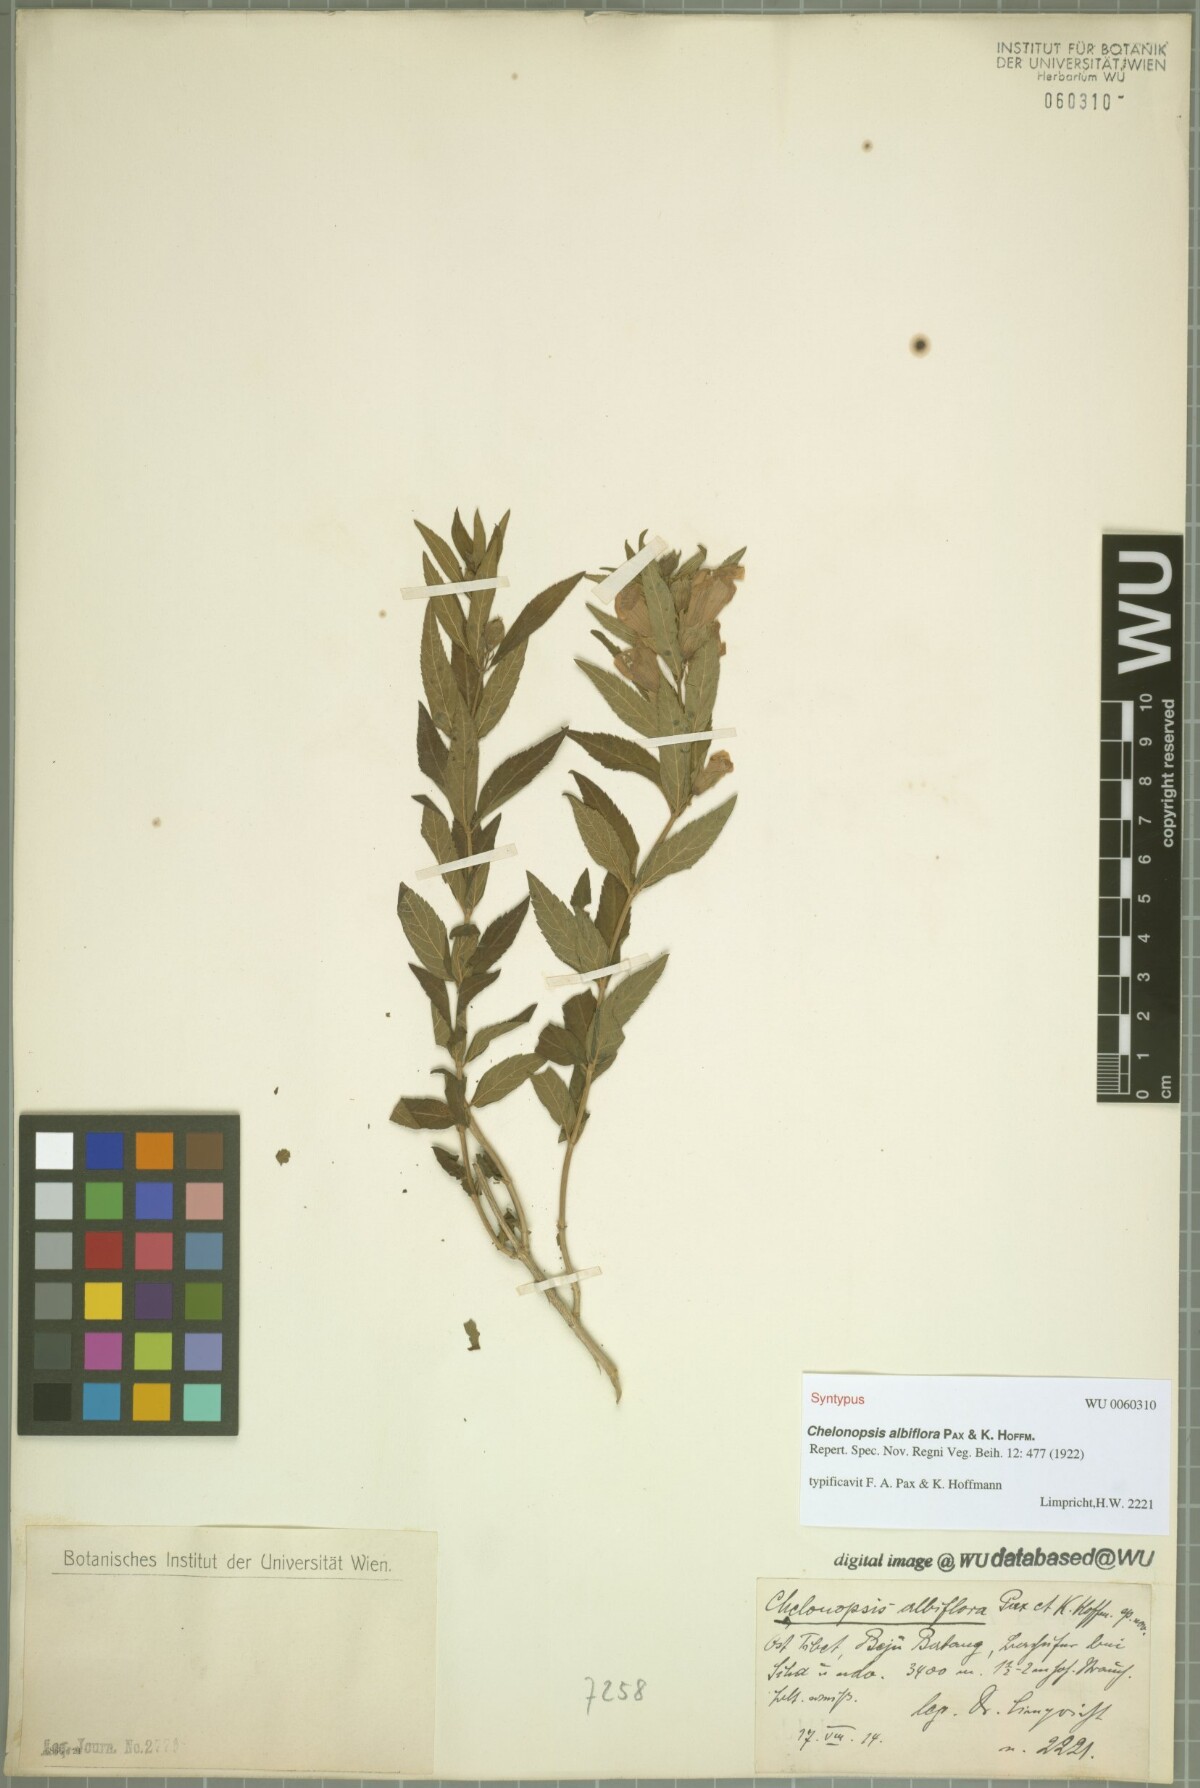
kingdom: Plantae
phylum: Tracheophyta
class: Magnoliopsida
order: Lamiales
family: Lamiaceae
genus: Chelonopsis
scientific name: Chelonopsis souliei
